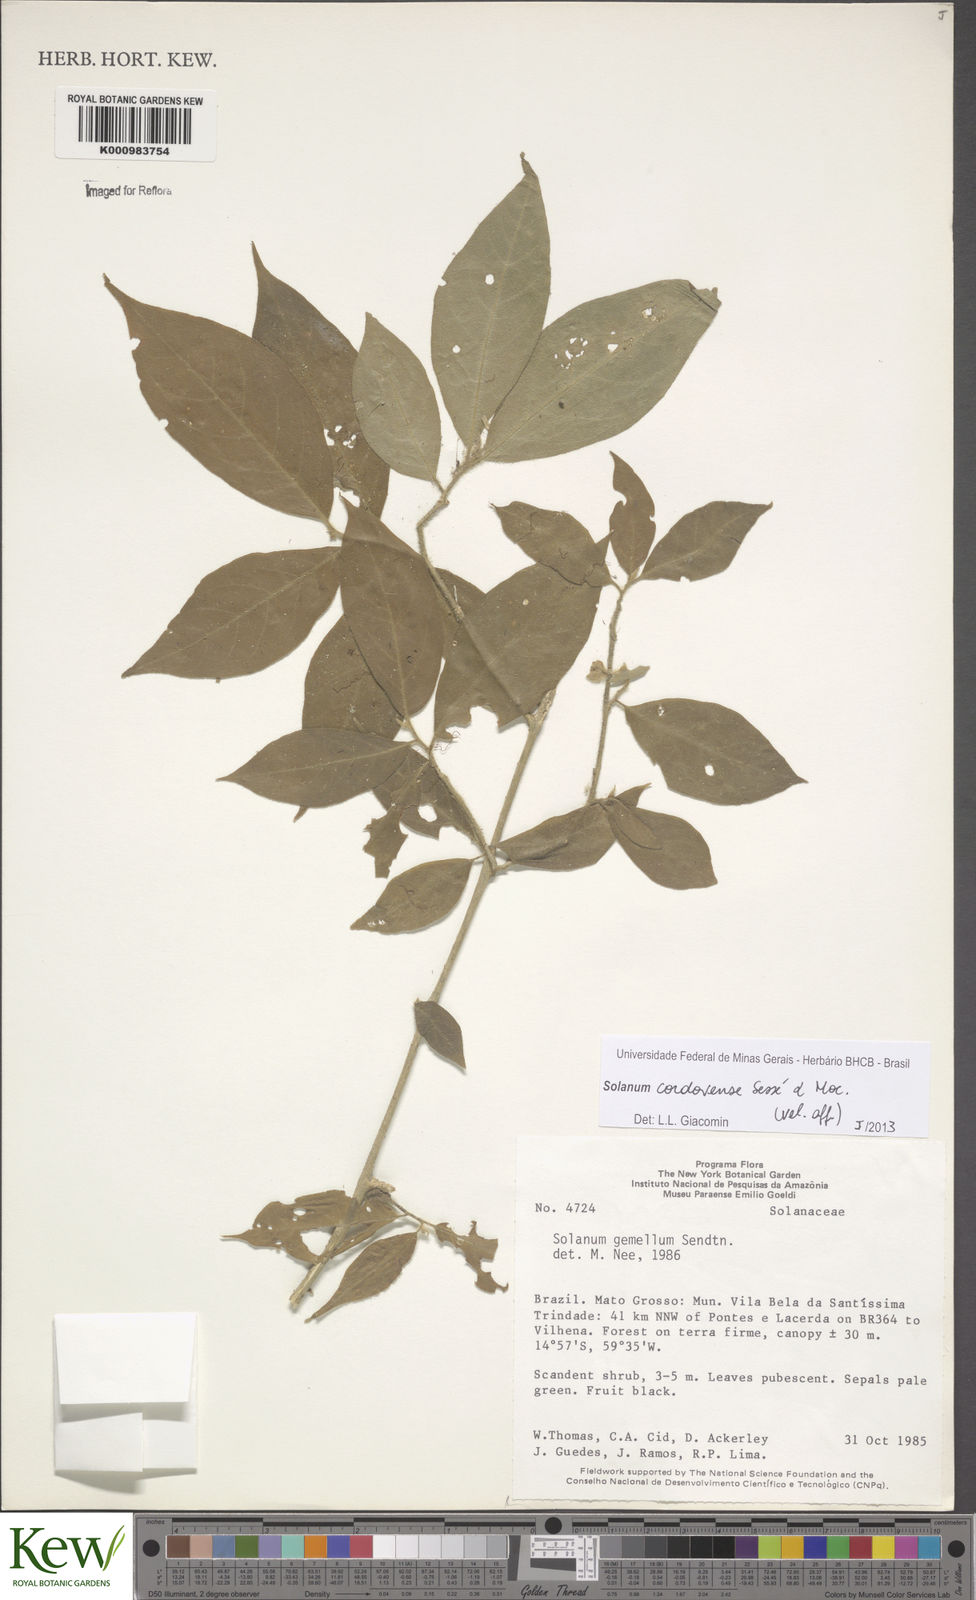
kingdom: Plantae
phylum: Tracheophyta
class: Magnoliopsida
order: Solanales
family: Solanaceae
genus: Solanum
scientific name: Solanum
